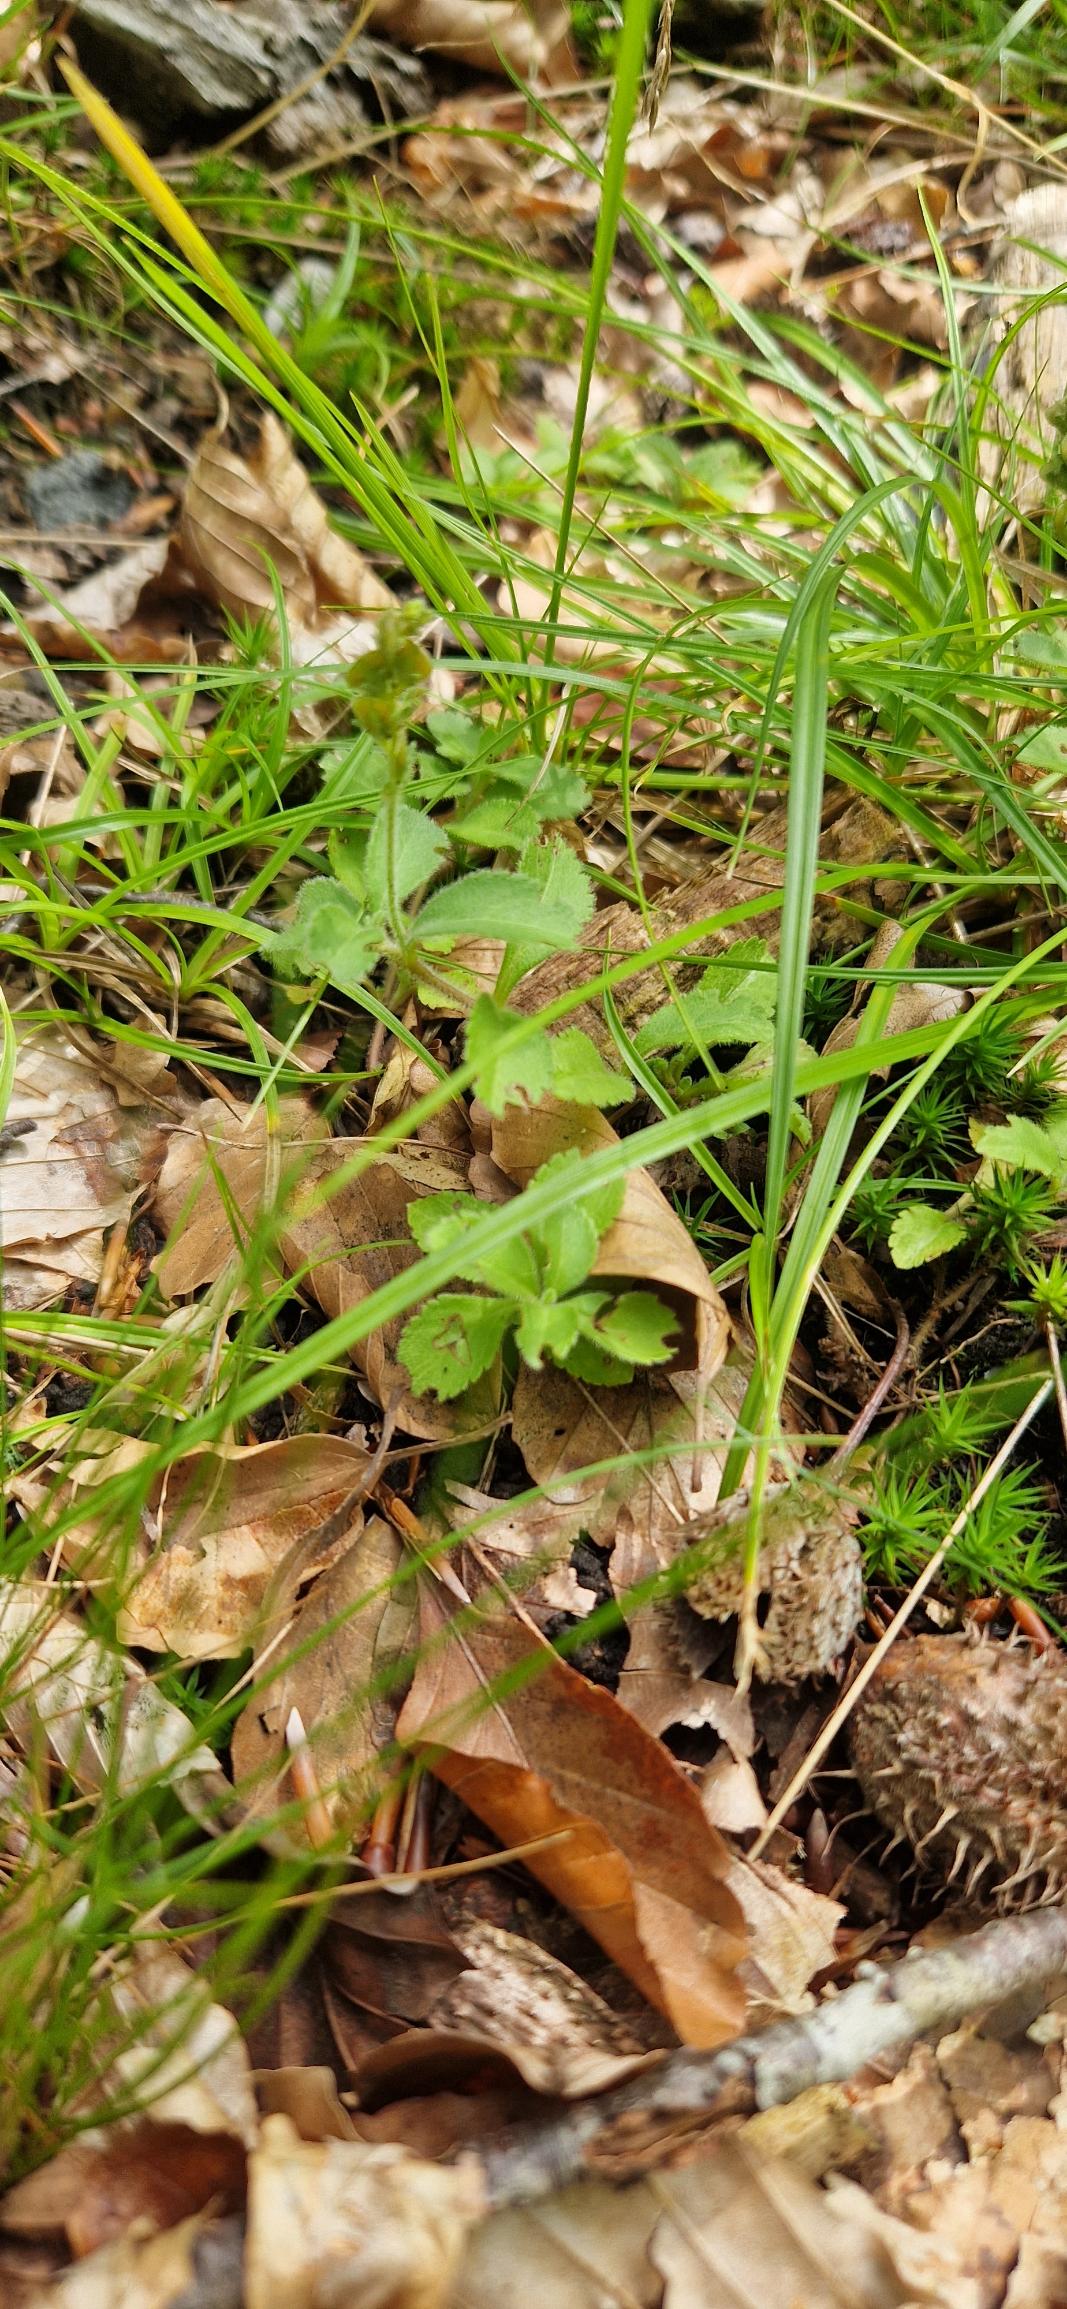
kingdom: Plantae
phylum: Tracheophyta
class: Magnoliopsida
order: Lamiales
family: Plantaginaceae
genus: Veronica
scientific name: Veronica officinalis
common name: Læge-ærenpris
